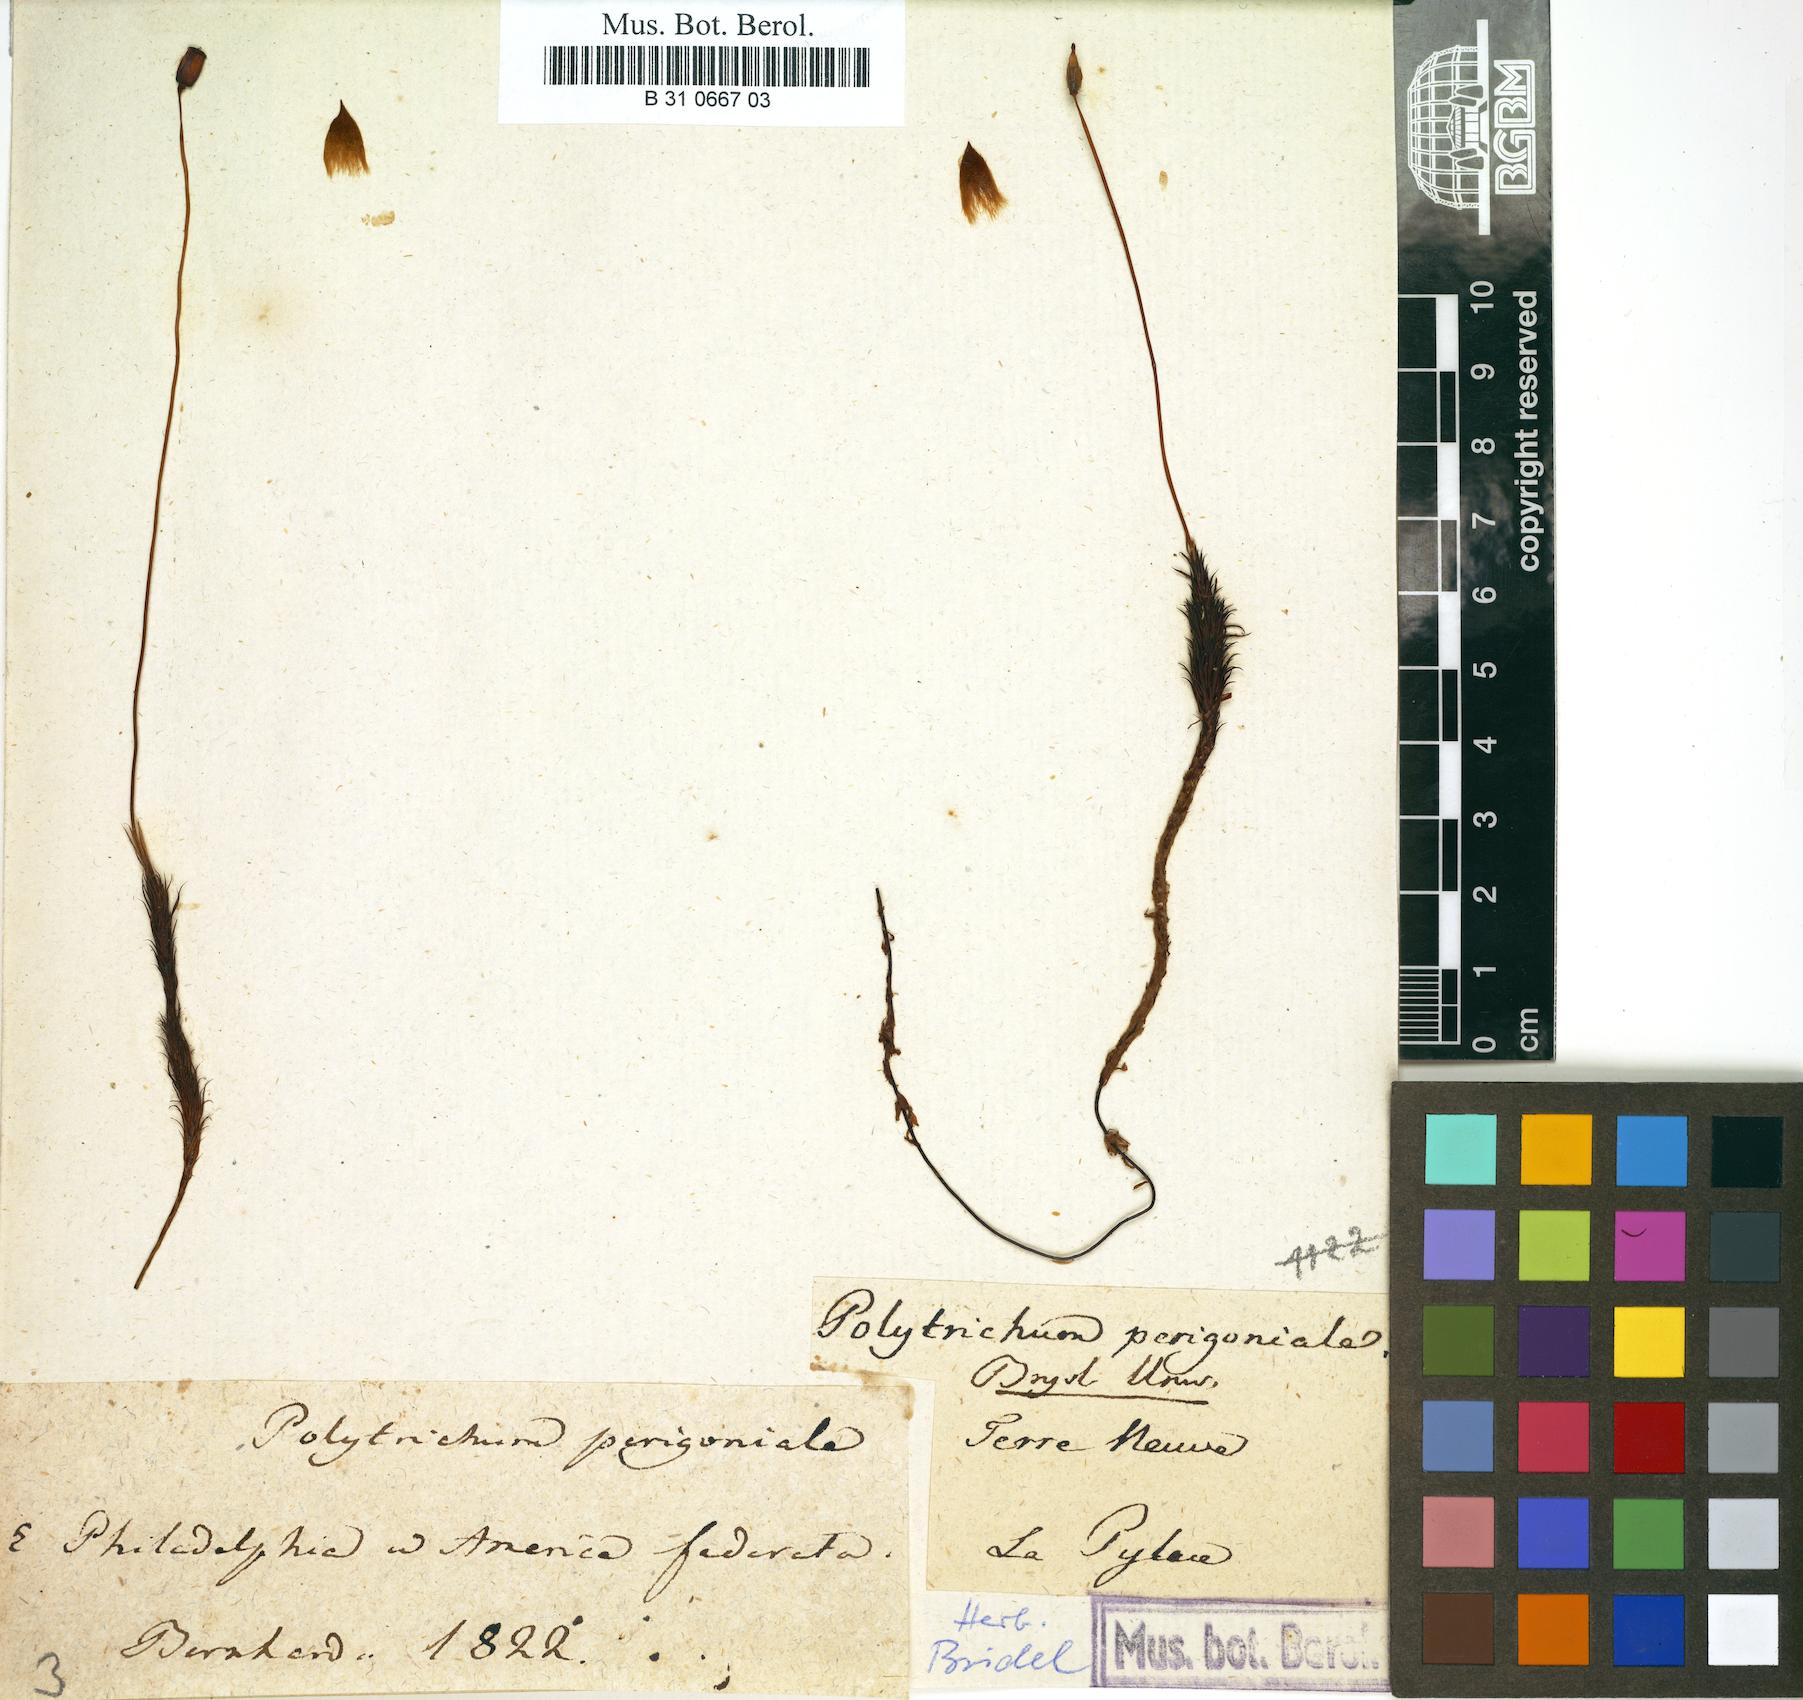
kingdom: Plantae
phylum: Bryophyta
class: Polytrichopsida
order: Polytrichales
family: Polytrichaceae
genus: Polytrichum
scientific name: Polytrichum perigoniale
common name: Dense haircap moss
